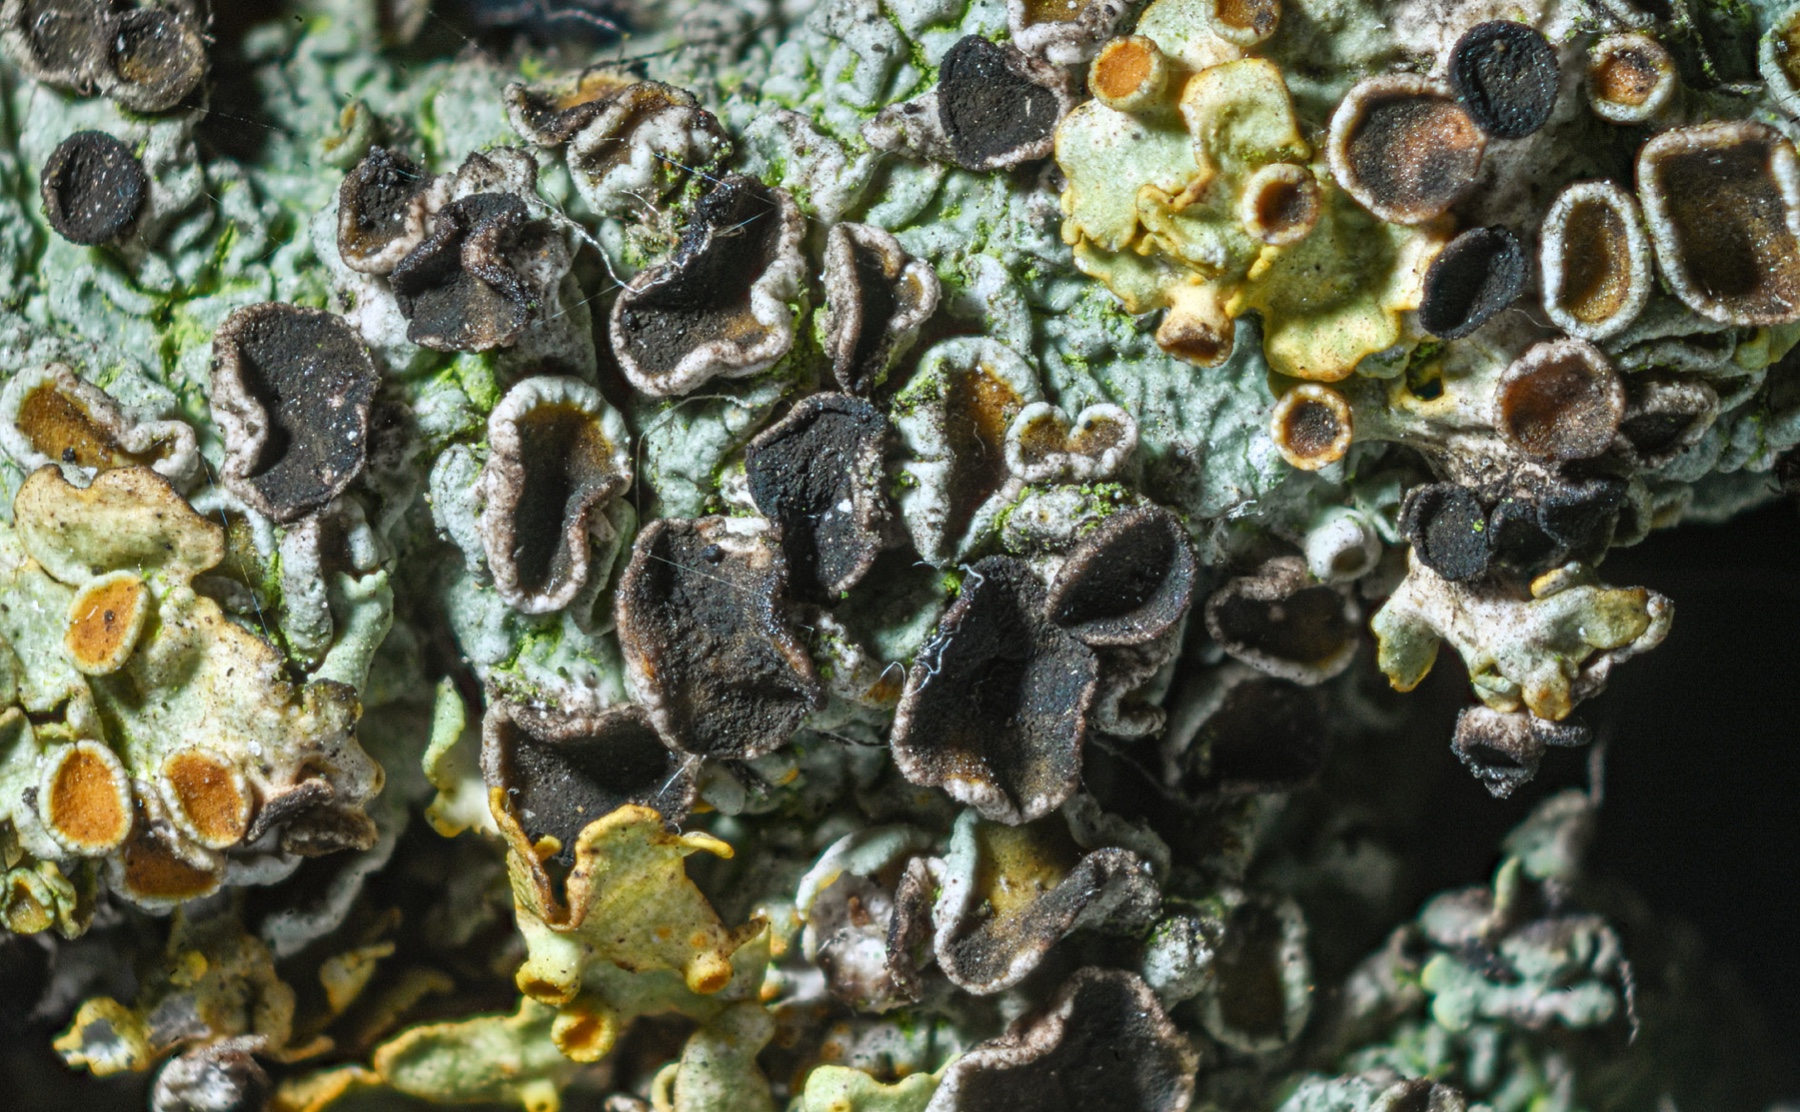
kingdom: Fungi
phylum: Ascomycota
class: Dothideomycetes
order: Mycosphaerellales
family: Teratosphaeriaceae
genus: Xanthoriicola
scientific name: Xanthoriicola physciae
